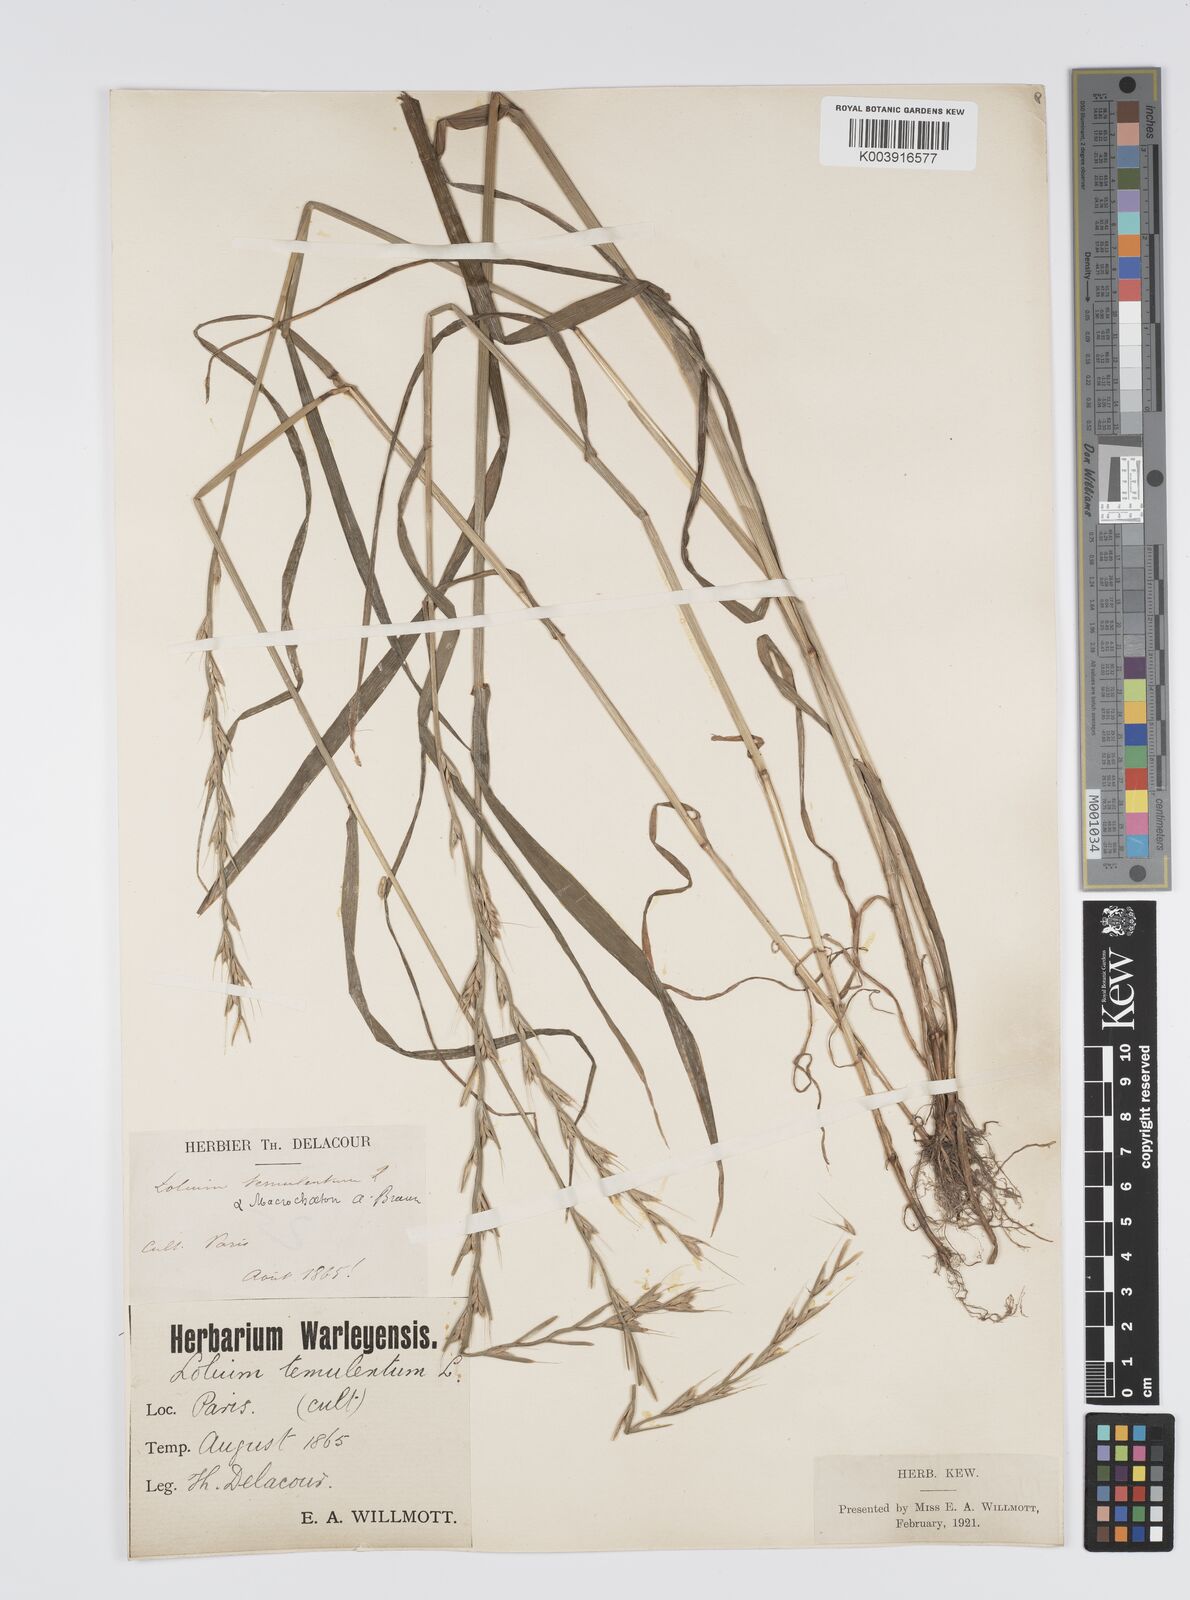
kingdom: Plantae
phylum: Tracheophyta
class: Liliopsida
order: Poales
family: Poaceae
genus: Lolium
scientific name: Lolium temulentum
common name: Darnel
